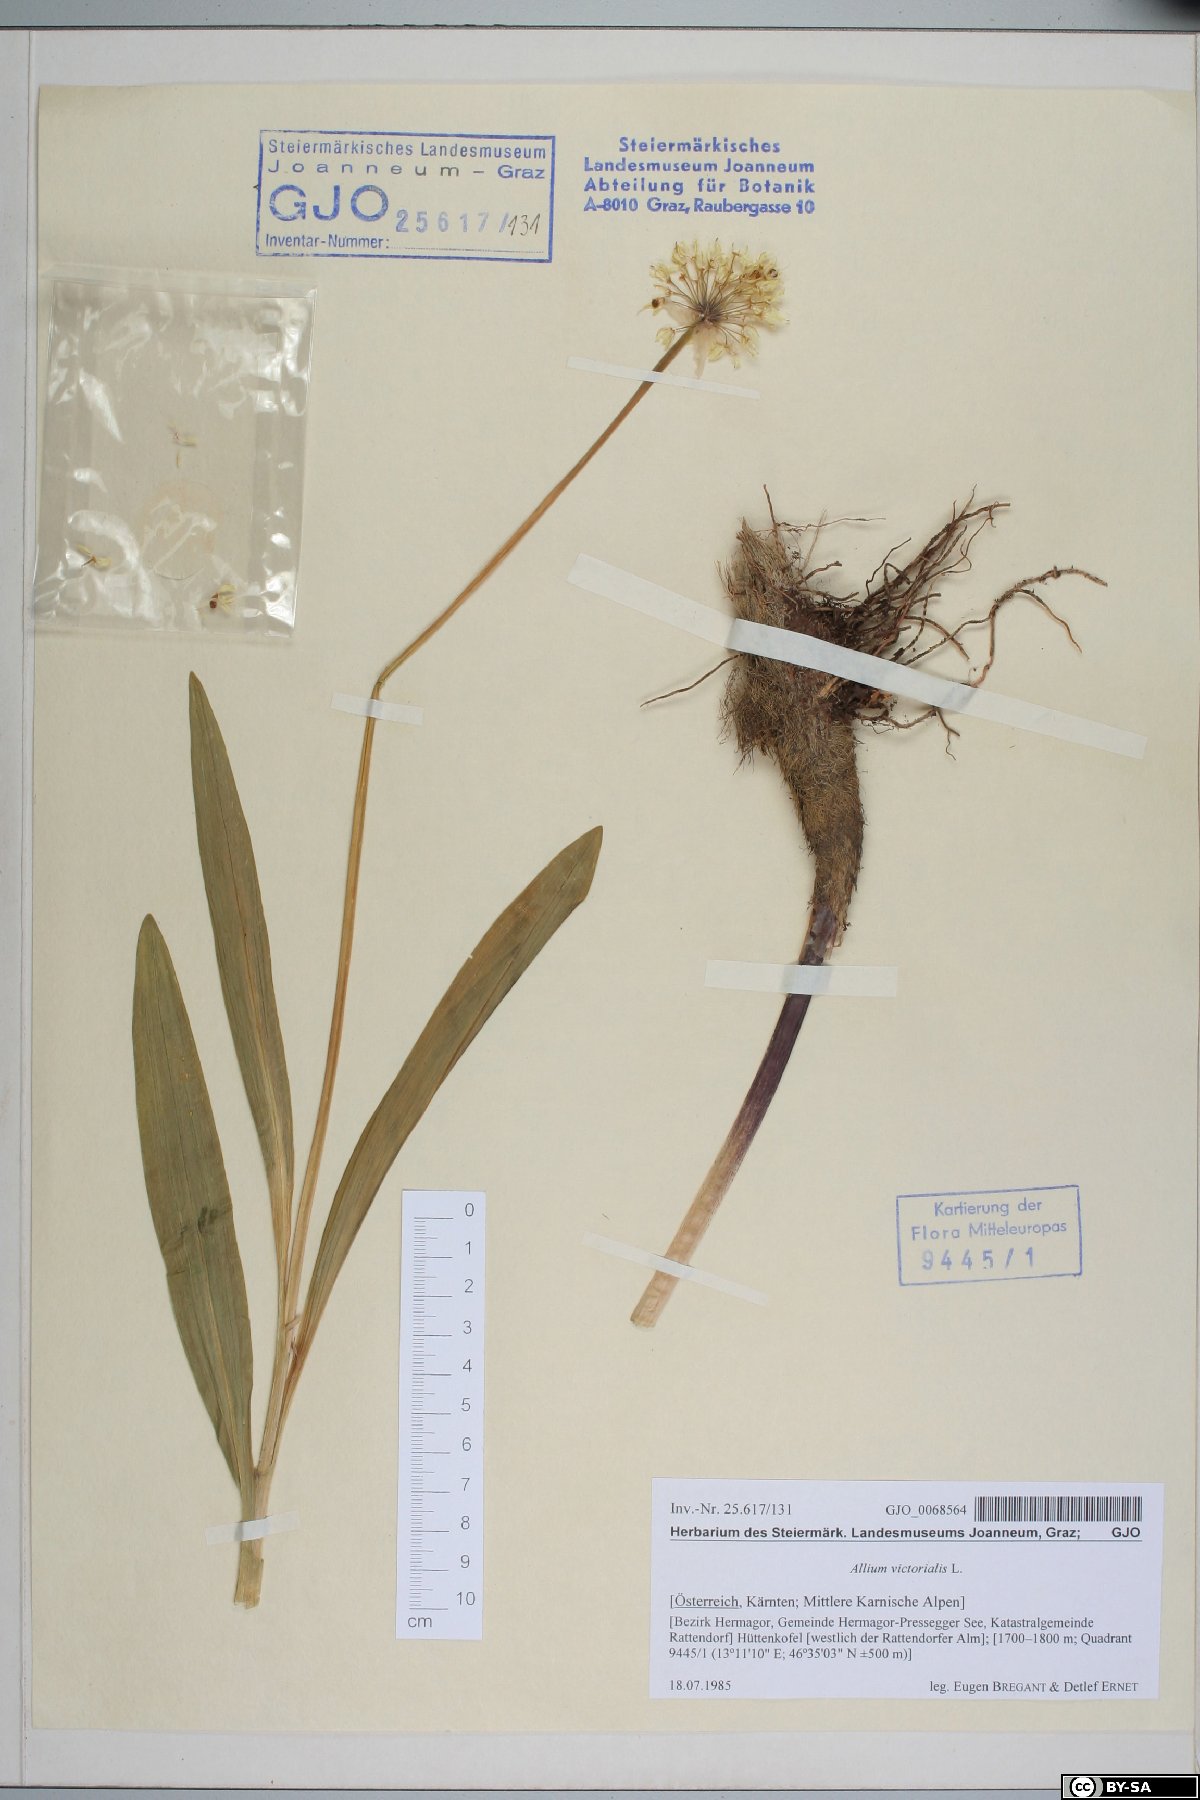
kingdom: Plantae
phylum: Tracheophyta
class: Liliopsida
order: Asparagales
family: Amaryllidaceae
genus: Allium
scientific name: Allium victorialis
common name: Alpine leek
